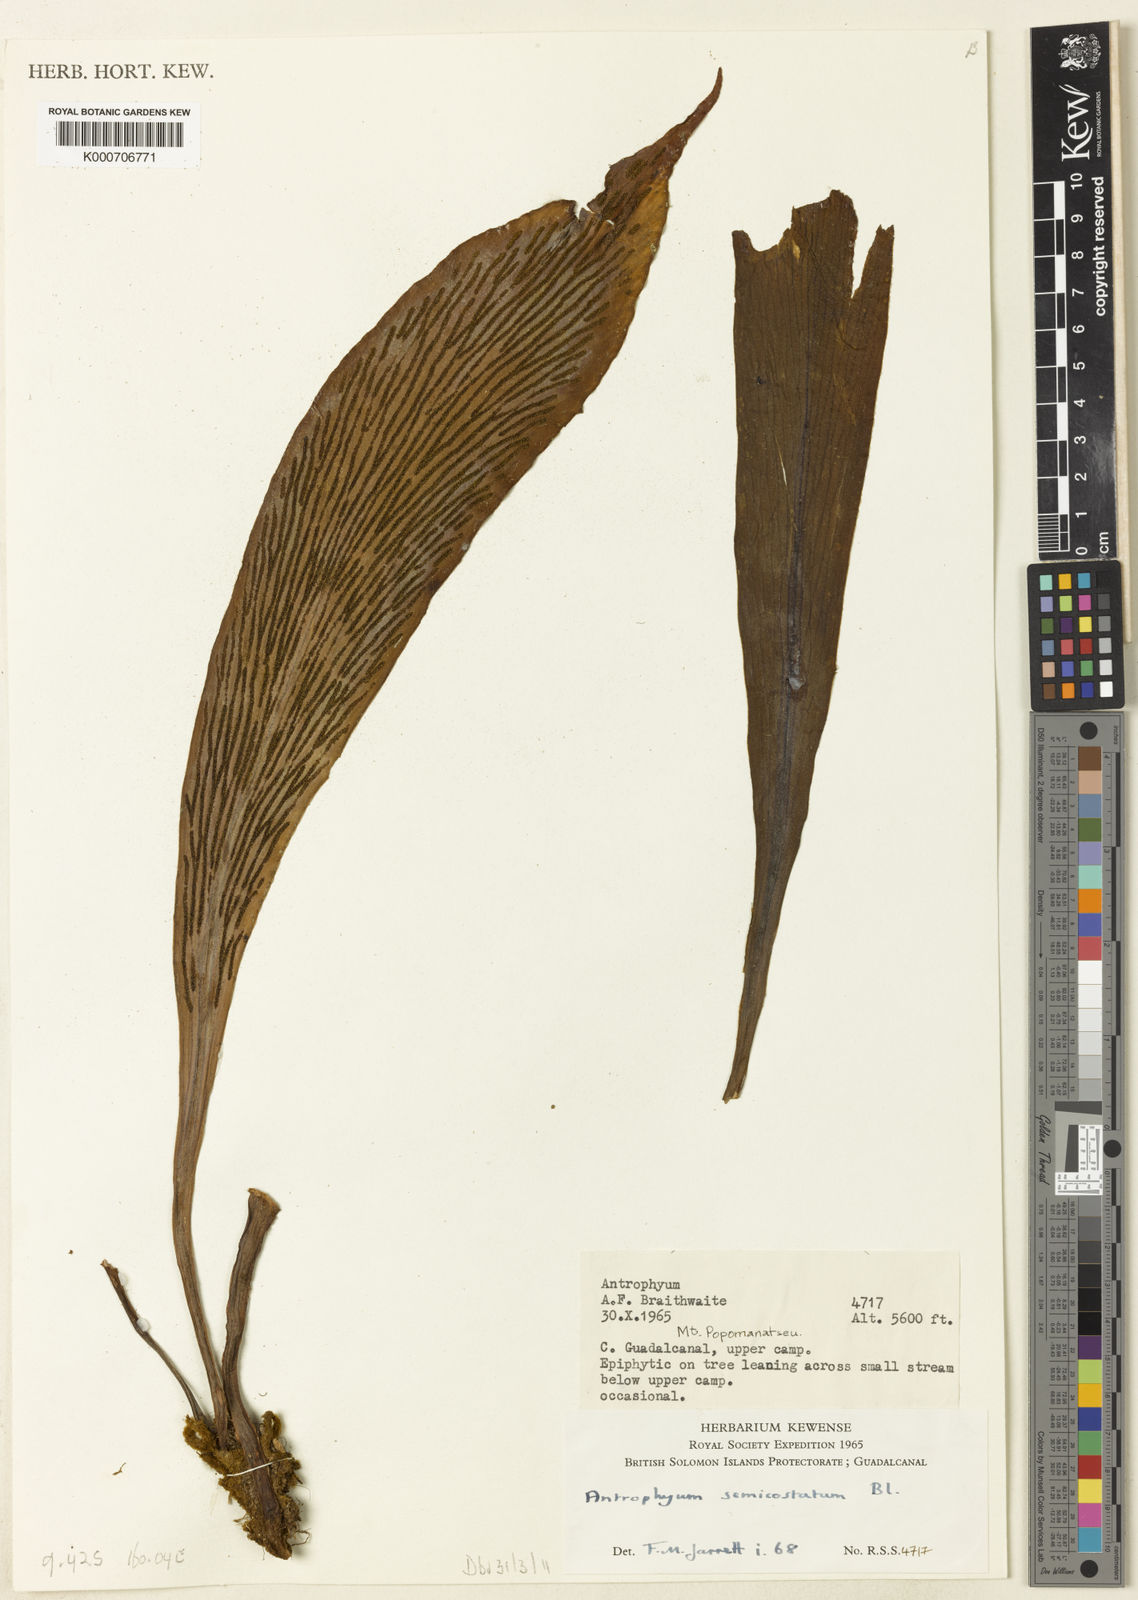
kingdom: Plantae
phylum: Tracheophyta
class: Polypodiopsida
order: Polypodiales
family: Pteridaceae
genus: Antrophyum
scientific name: Antrophyum semicostatum
